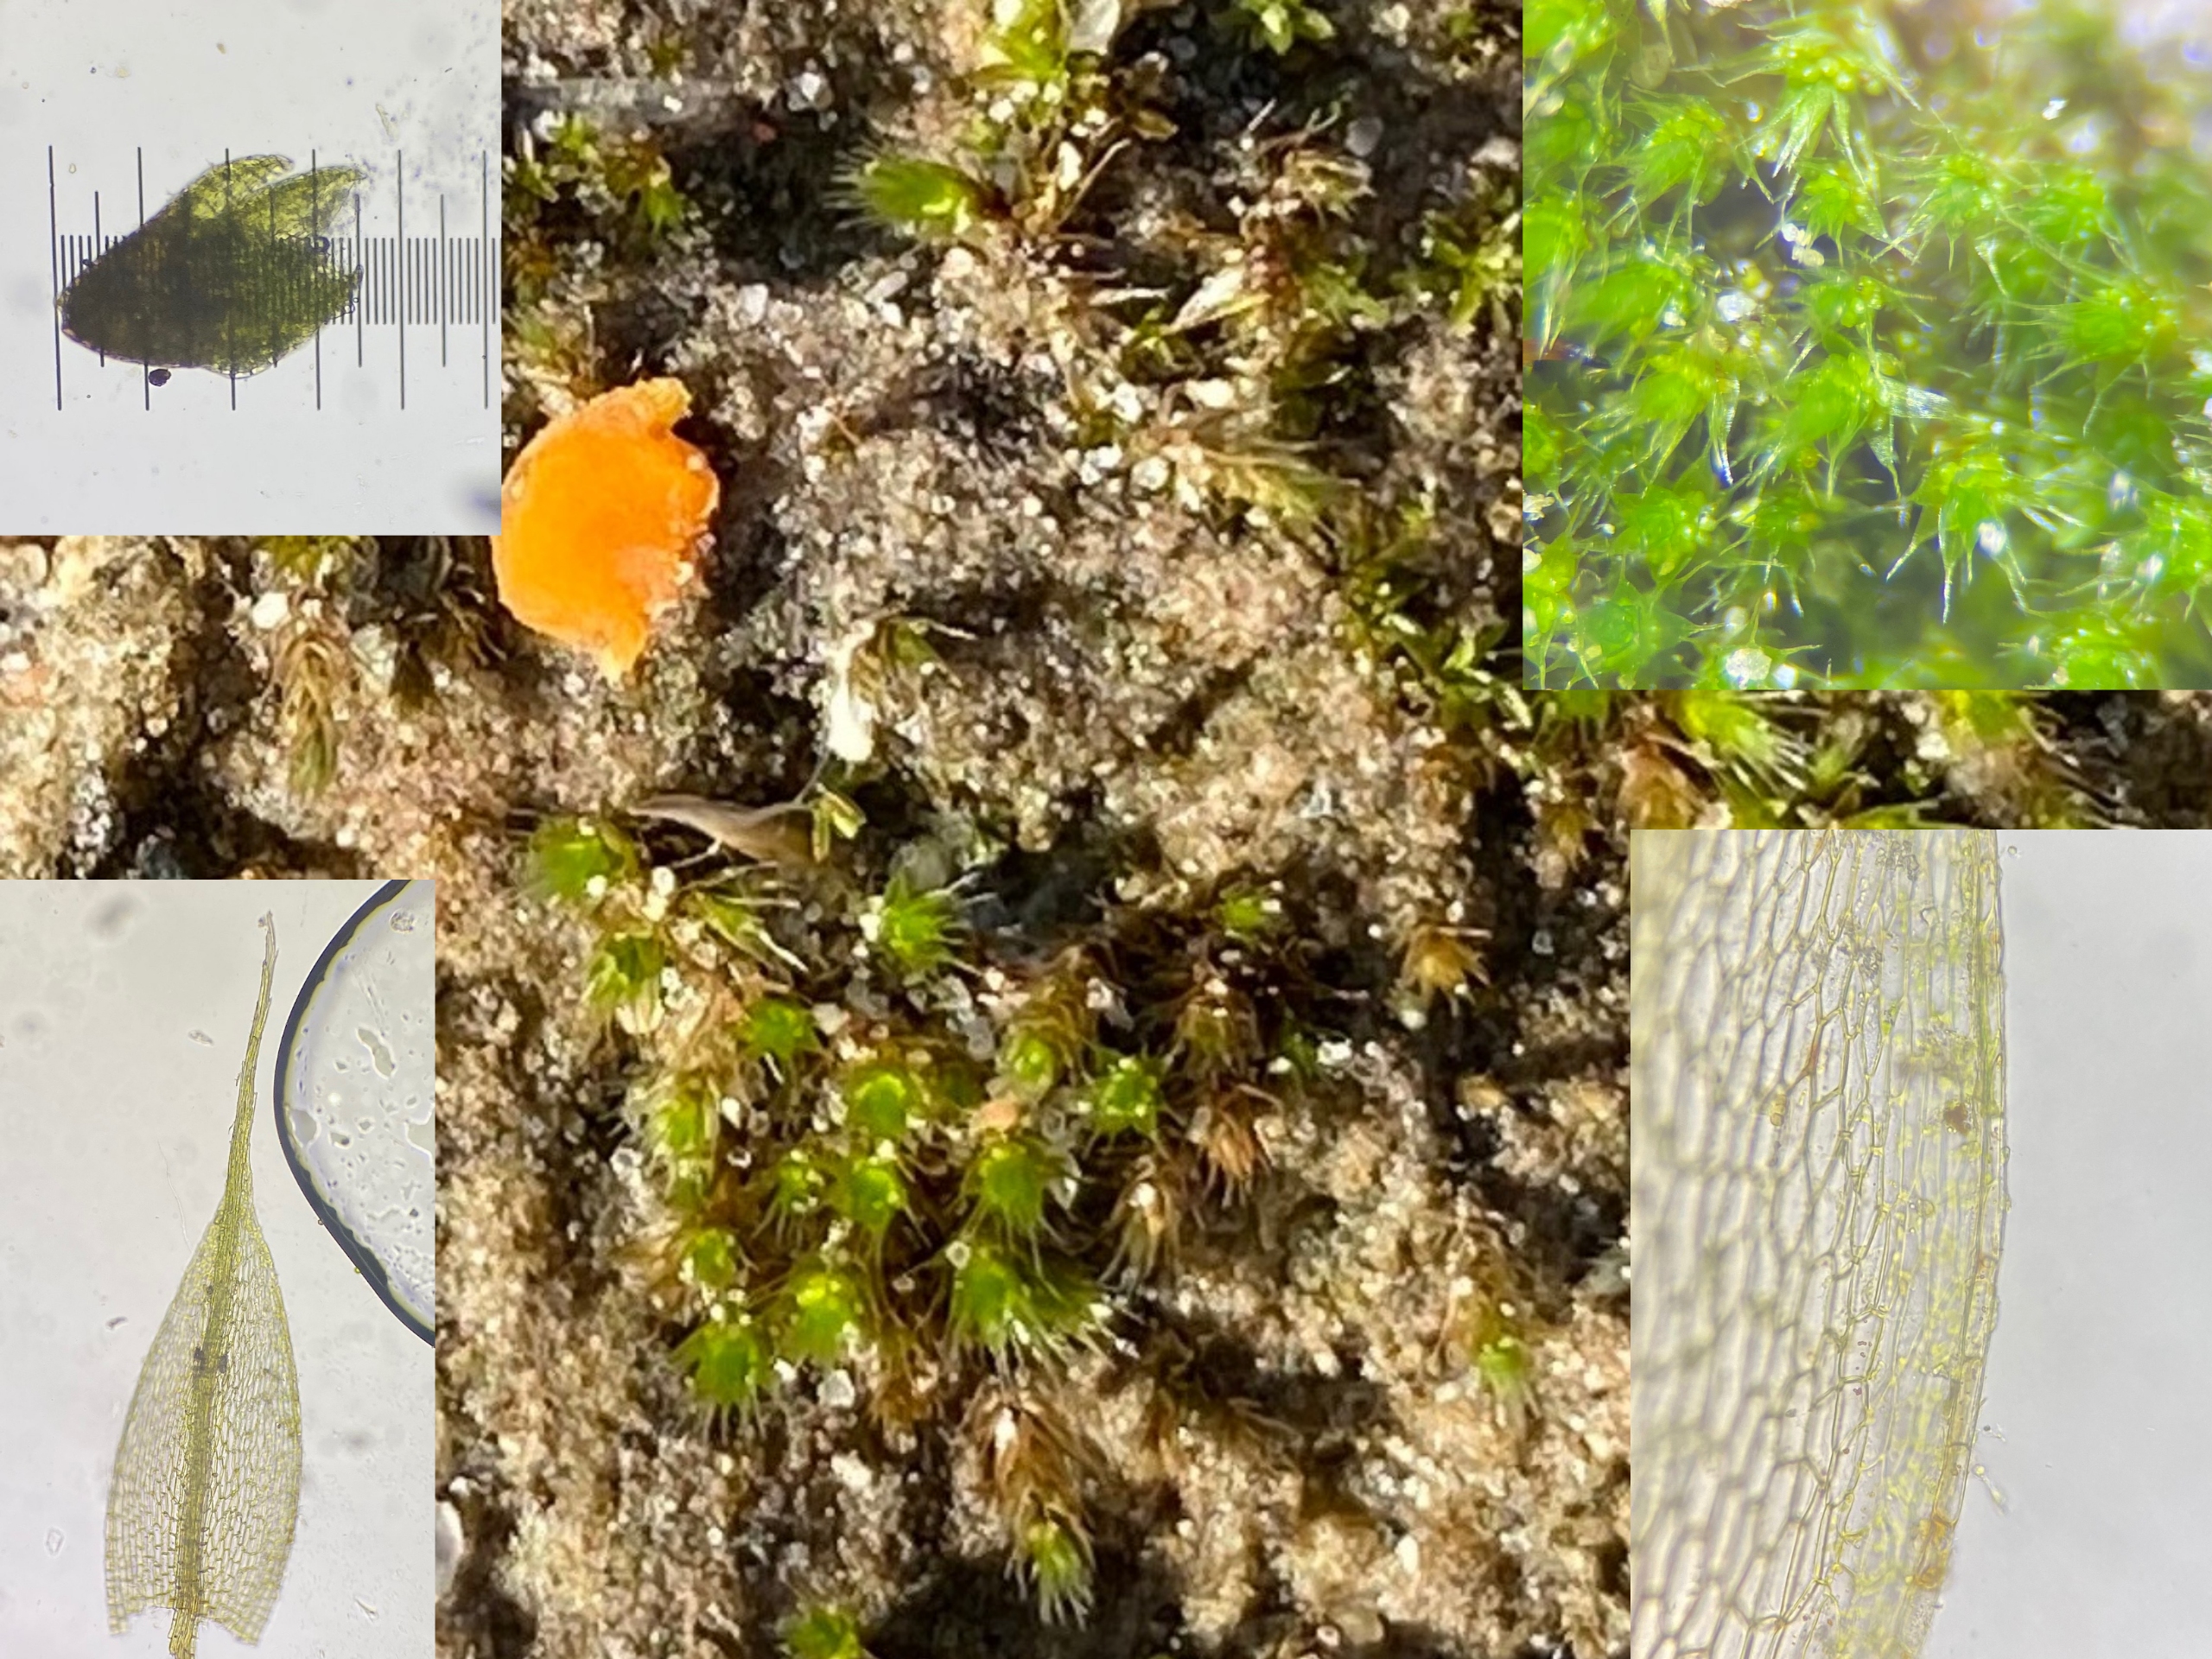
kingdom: Plantae
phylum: Bryophyta
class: Bryopsida
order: Bryales
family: Bryaceae
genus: Gemmabryum
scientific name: Gemmabryum dichotomum
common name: Dværg-bryum
